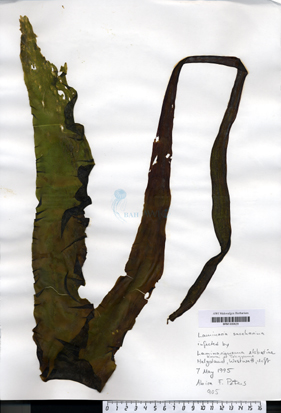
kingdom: Chromista
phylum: Ochrophyta
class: Phaeophyceae
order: Ectocarpales
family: Chordariaceae
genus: Laminarionema
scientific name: Laminarionema elsbethiae
